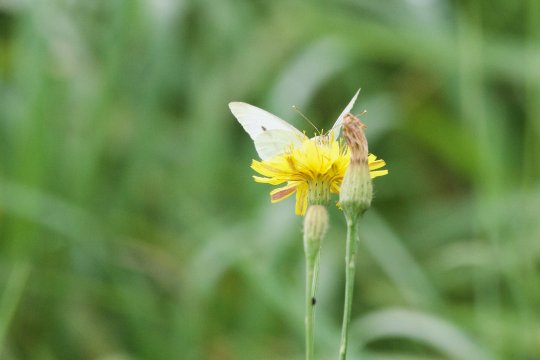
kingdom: Animalia
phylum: Arthropoda
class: Insecta
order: Lepidoptera
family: Pieridae
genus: Pieris
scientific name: Pieris rapae
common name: Cabbage White
